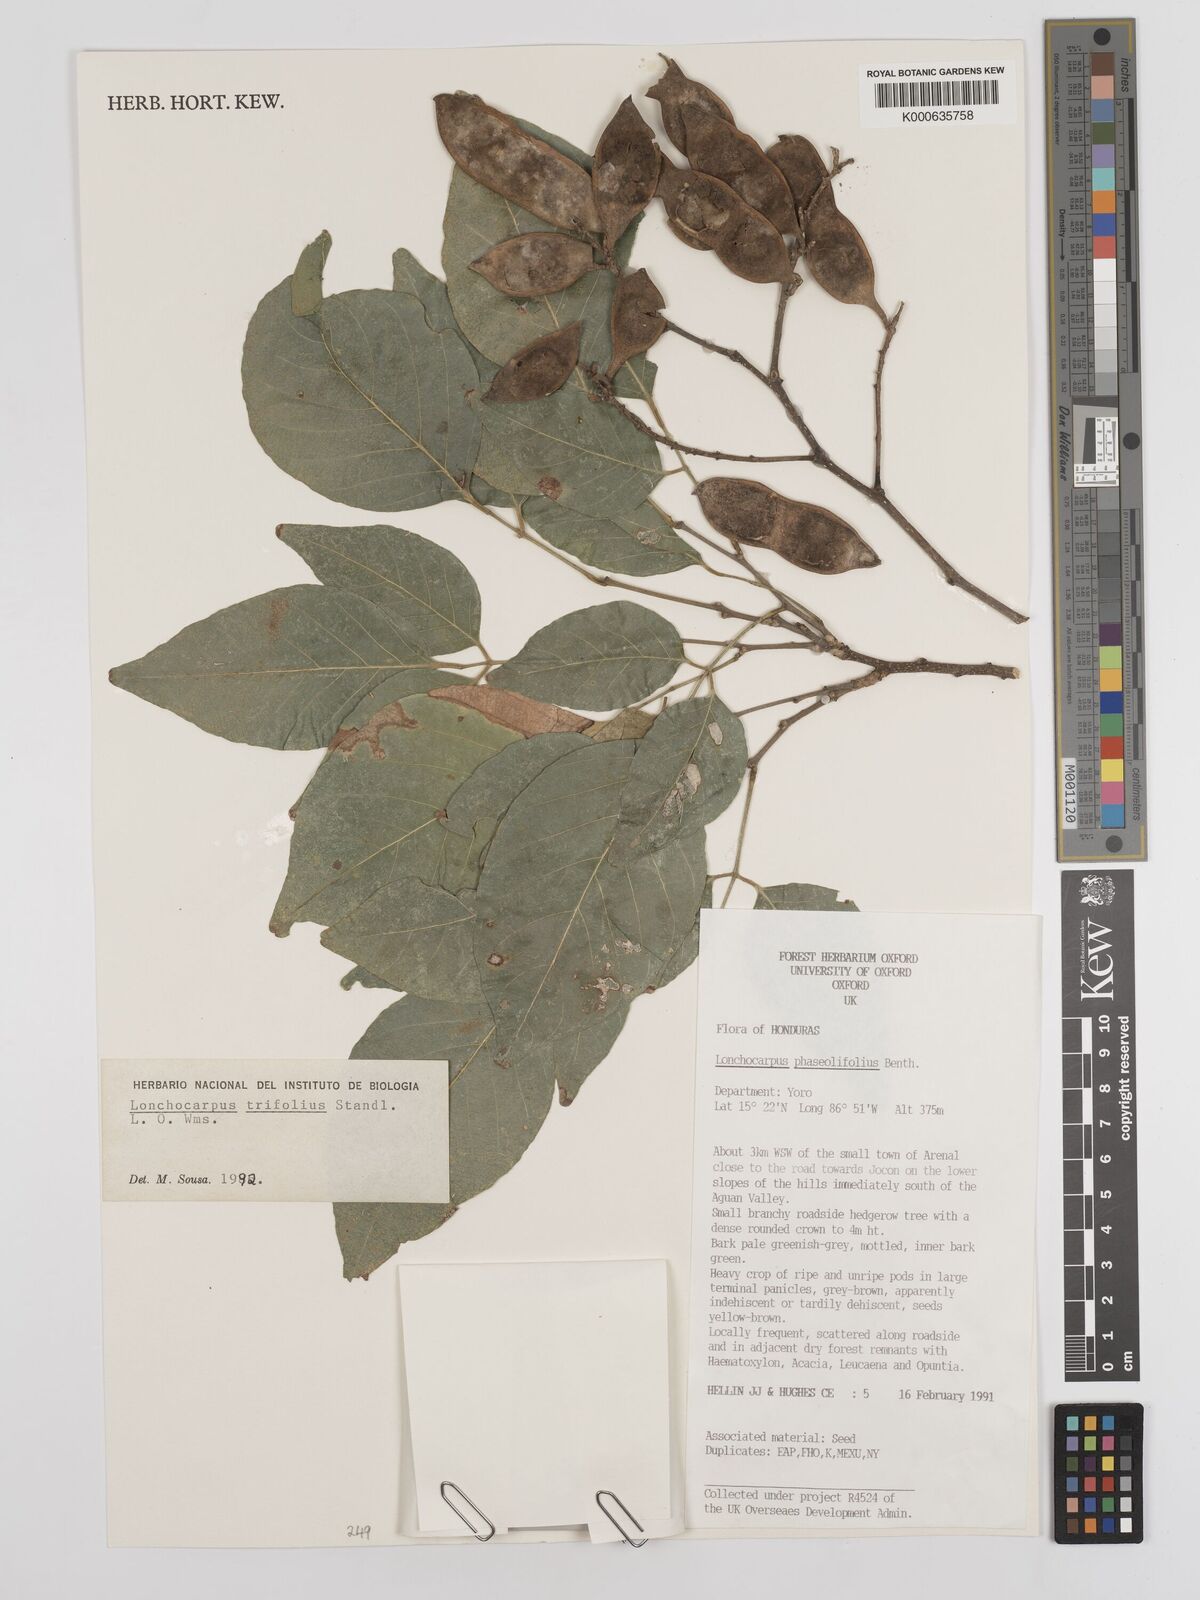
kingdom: Plantae
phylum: Tracheophyta
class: Magnoliopsida
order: Fabales
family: Fabaceae
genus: Lonchocarpus
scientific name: Lonchocarpus trifolius
